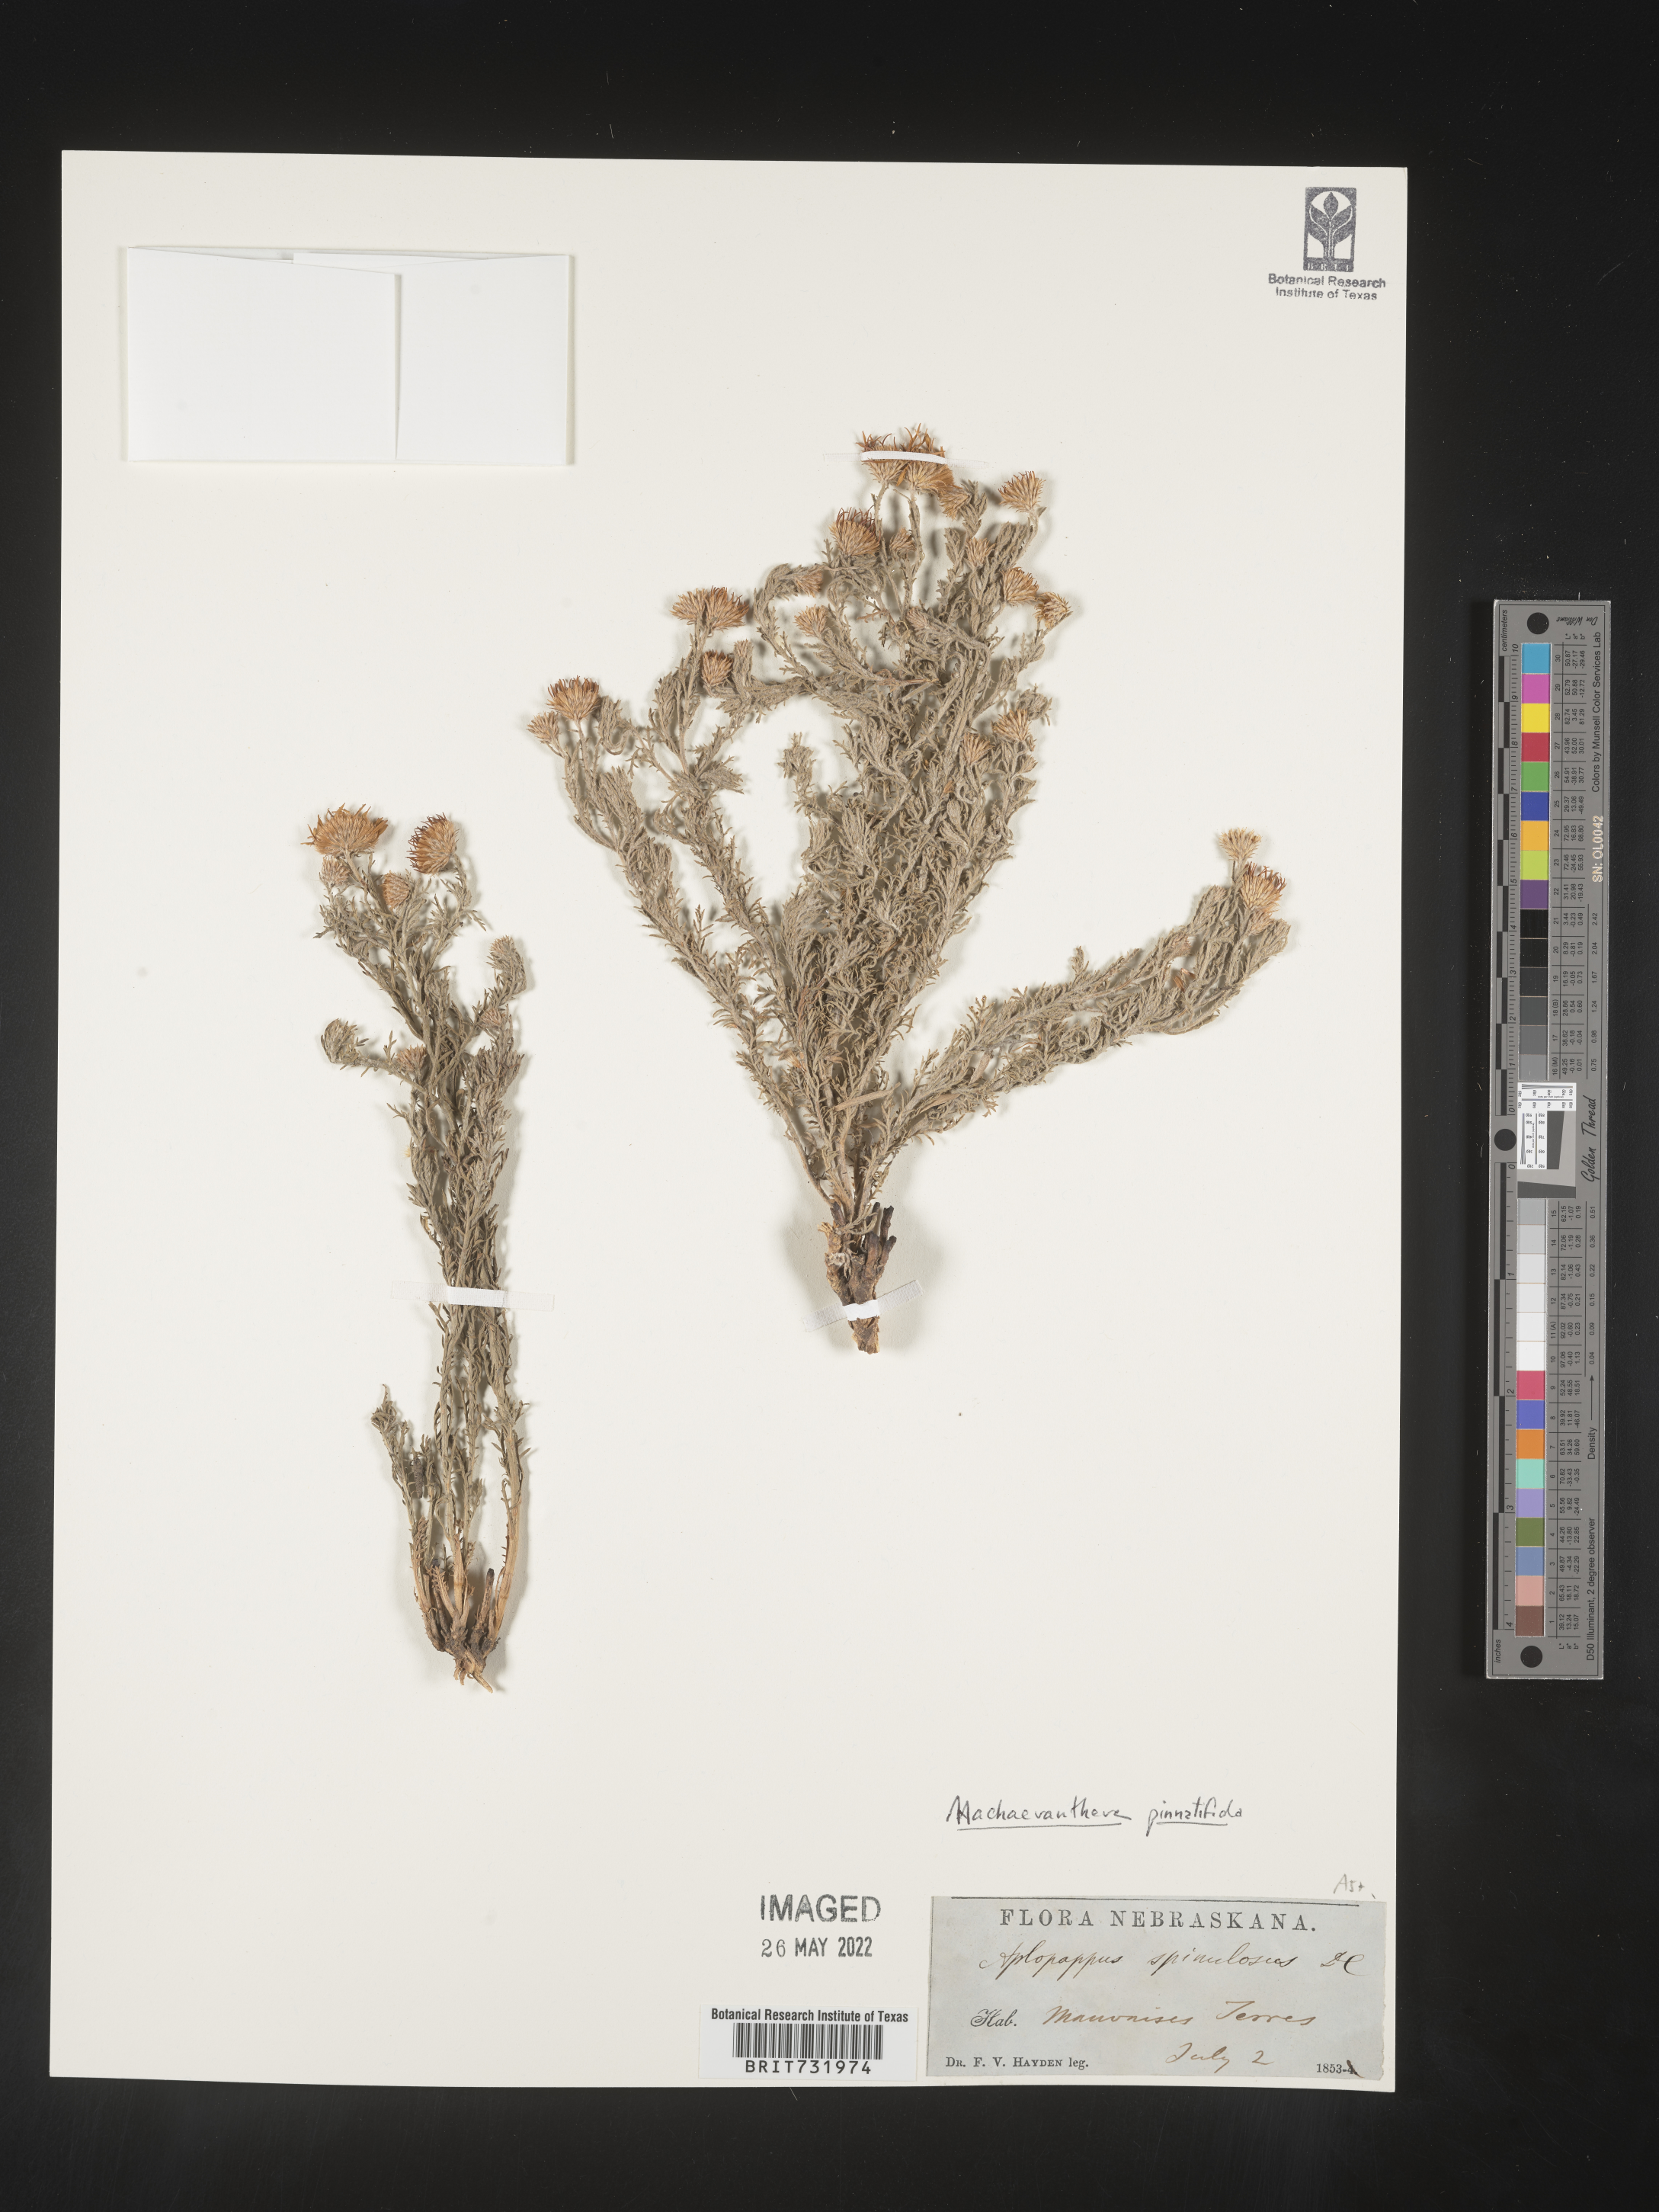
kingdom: Plantae
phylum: Tracheophyta
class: Magnoliopsida
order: Asterales
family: Asteraceae
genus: Xanthisma
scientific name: Xanthisma spinulosum
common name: Spiny goldenweed
